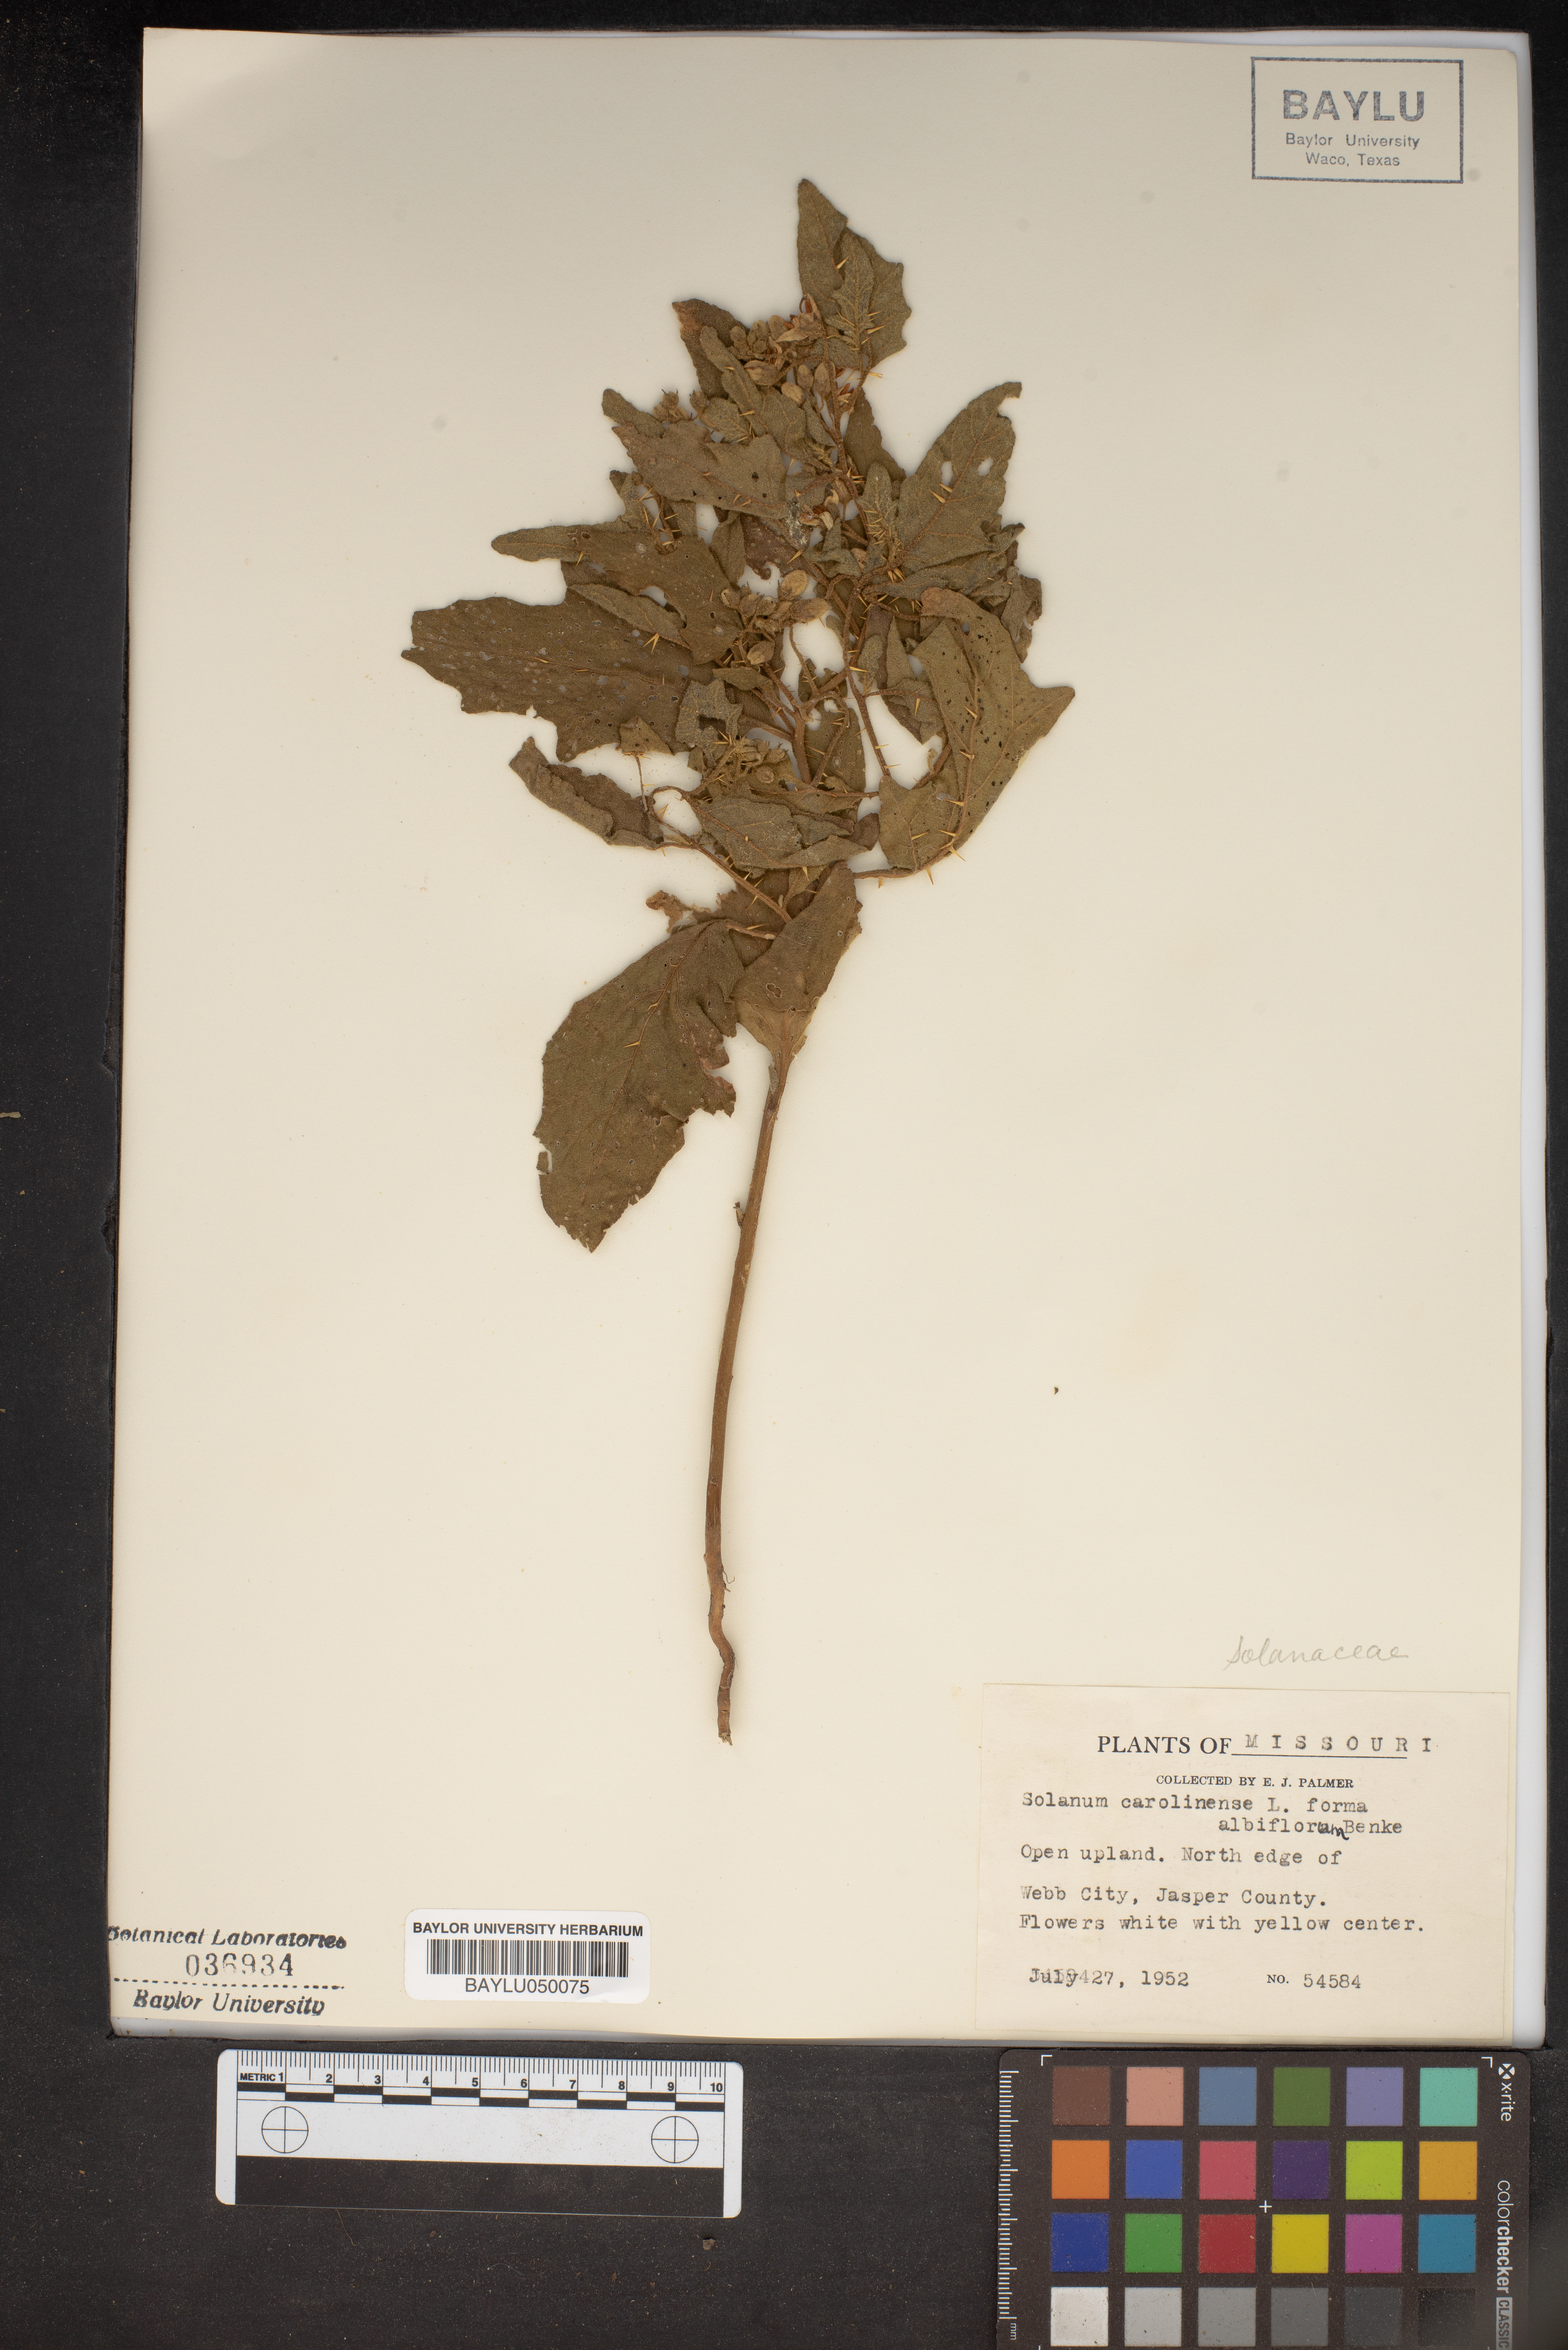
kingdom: Plantae
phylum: Tracheophyta
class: Magnoliopsida
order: Solanales
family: Solanaceae
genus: Solanum
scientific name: Solanum carolinense
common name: Horse-nettle
